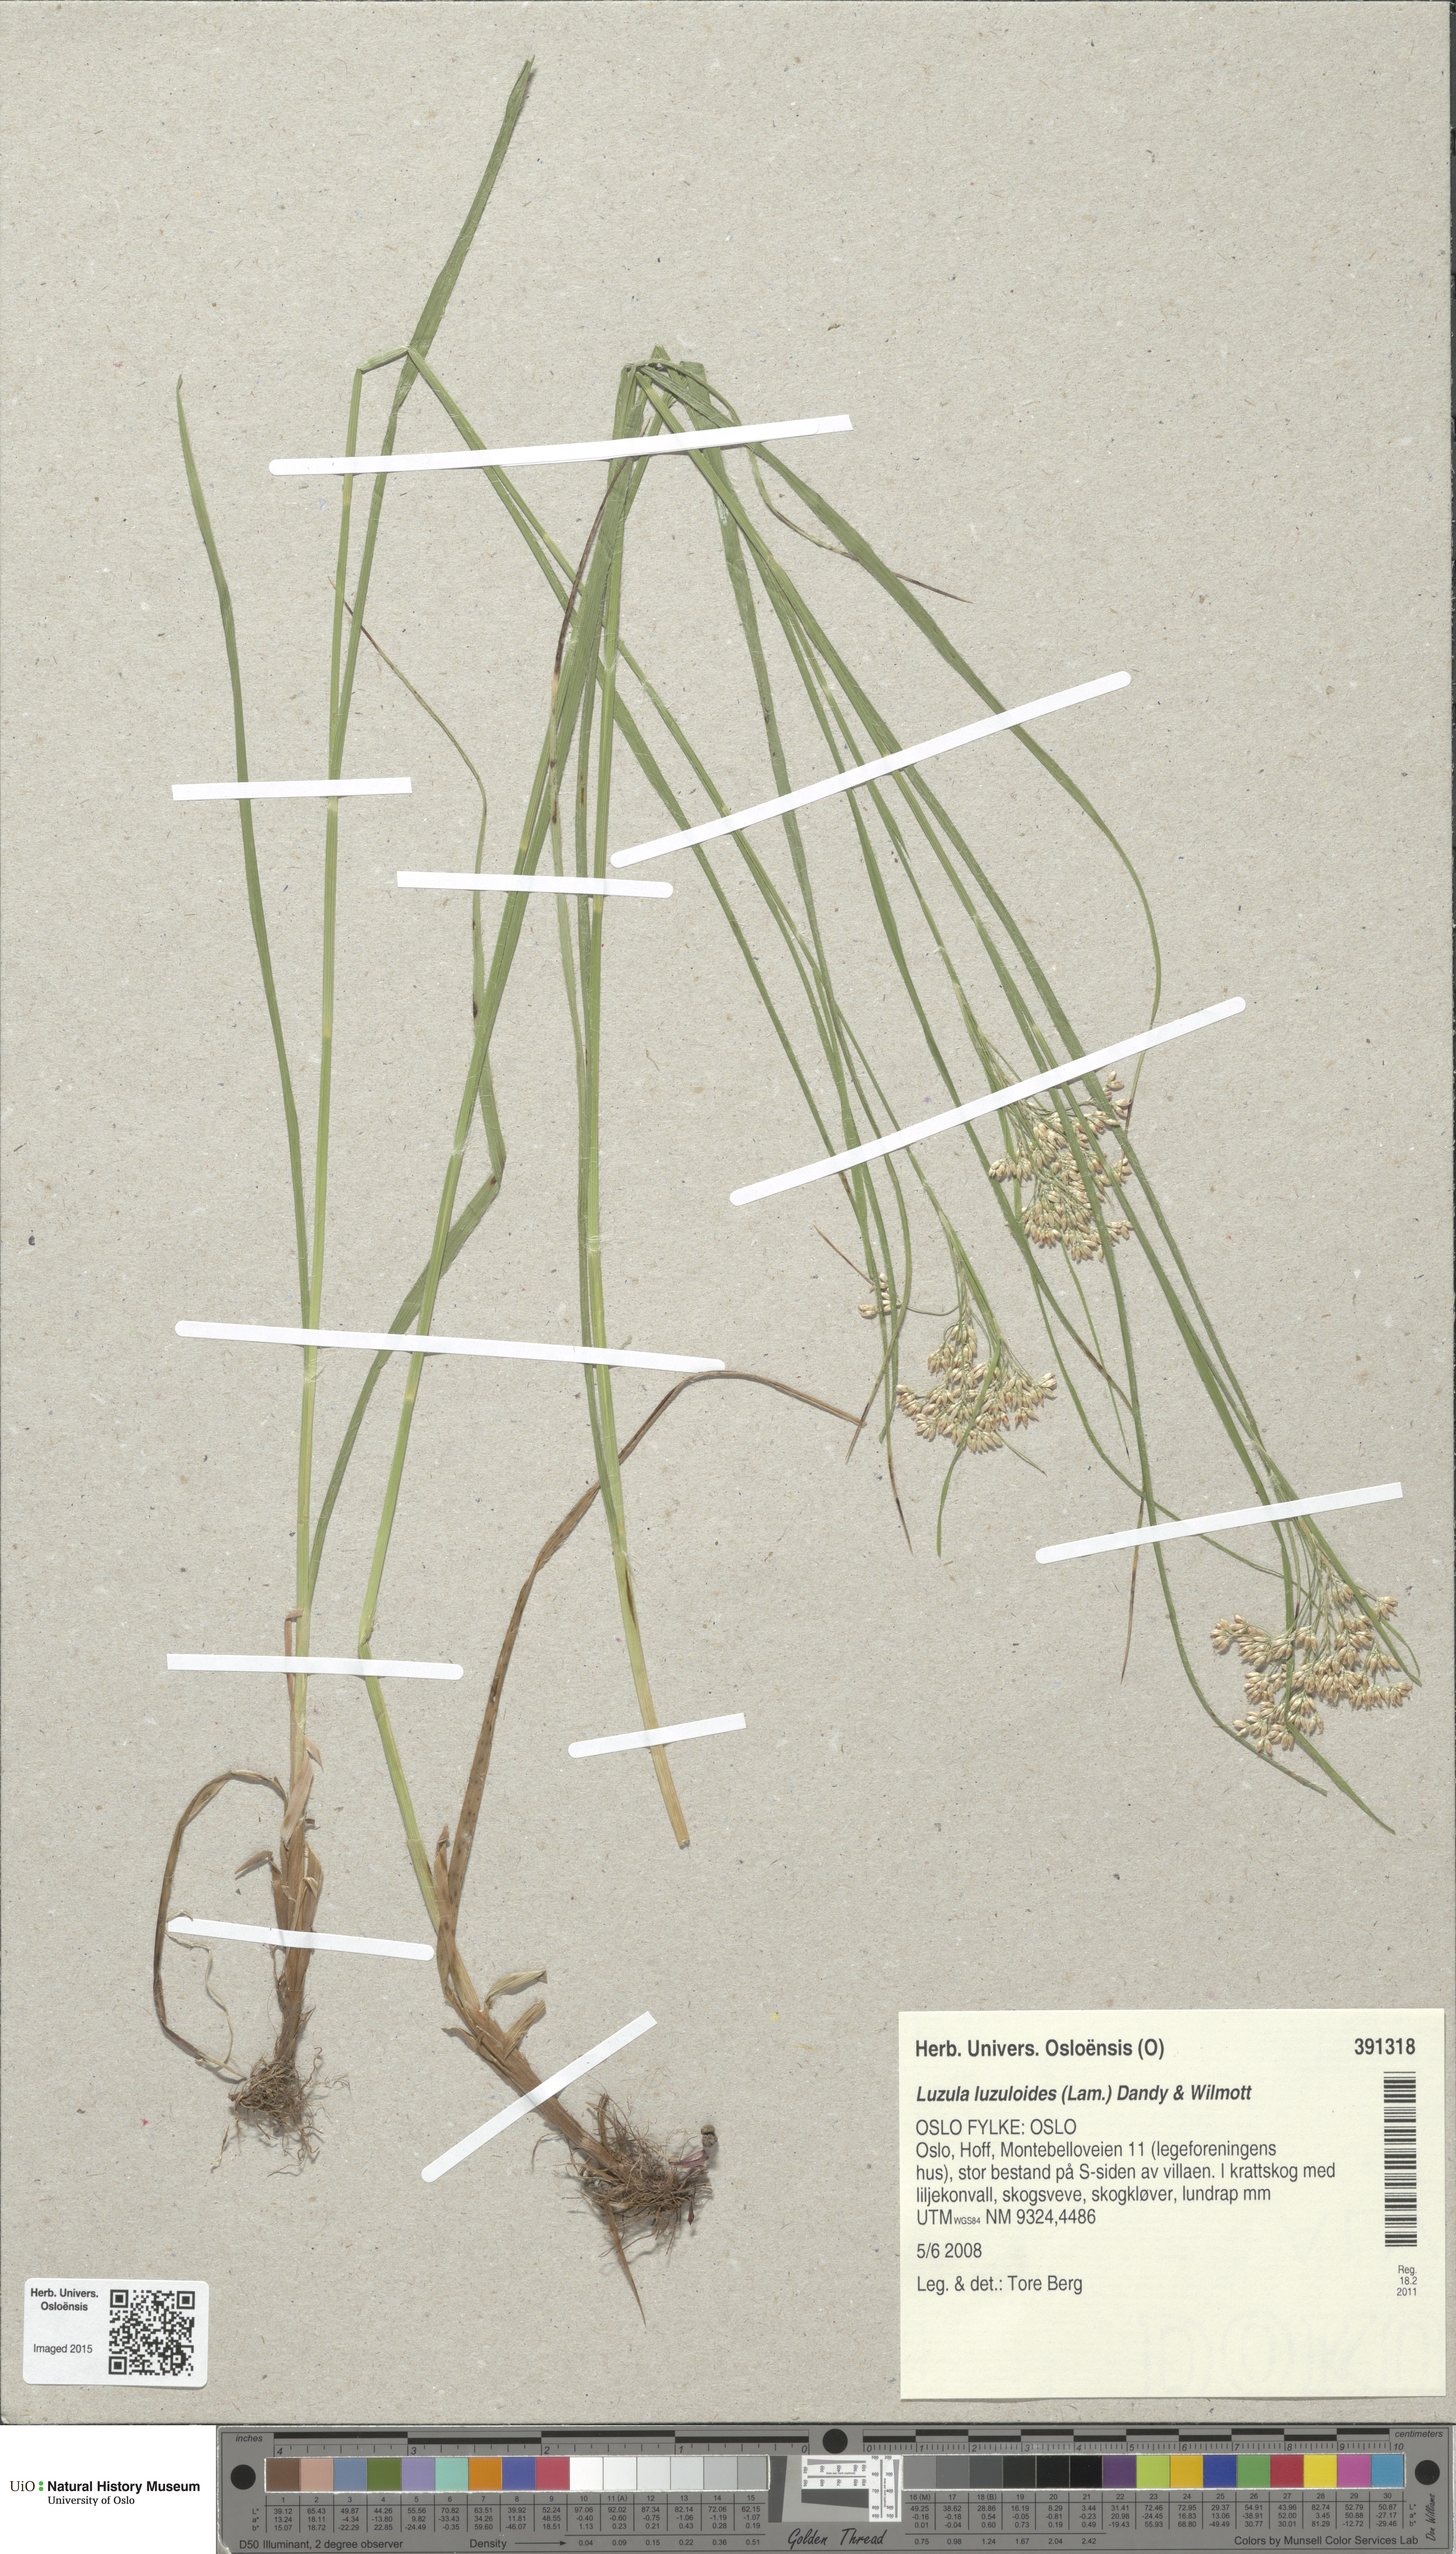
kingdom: Plantae
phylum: Tracheophyta
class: Liliopsida
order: Poales
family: Juncaceae
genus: Luzula
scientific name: Luzula luzuloides
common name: White wood-rush
